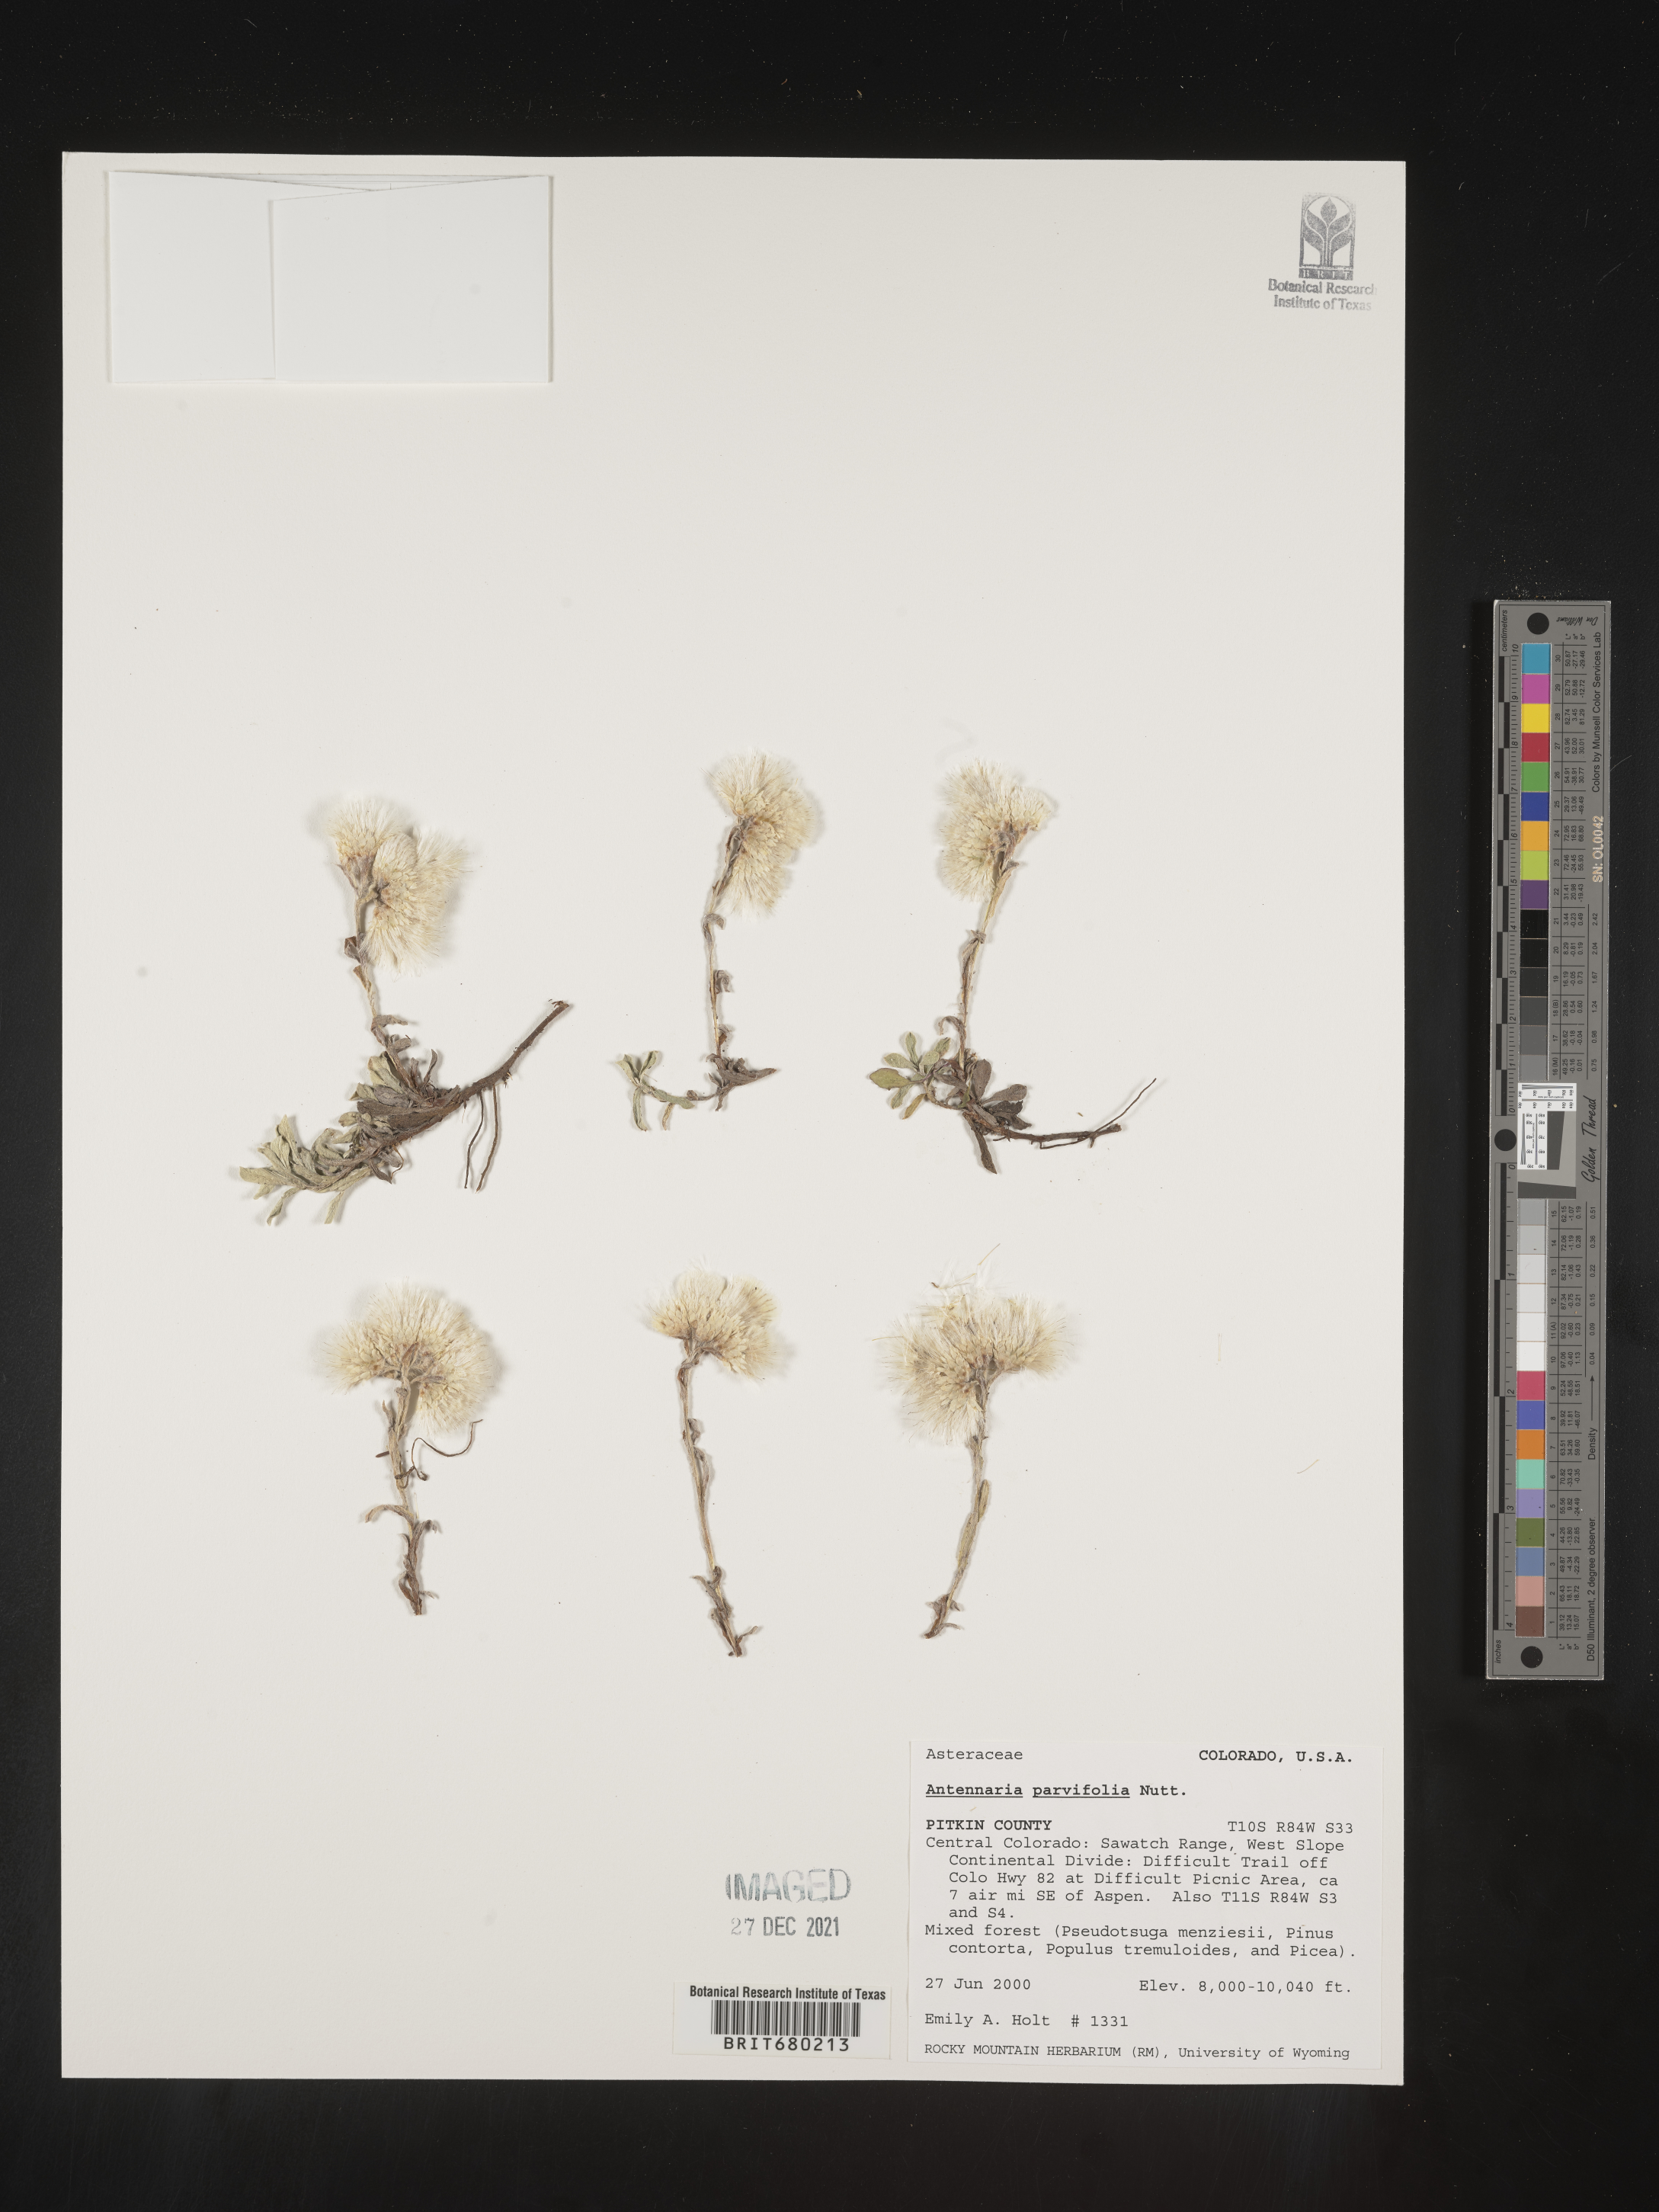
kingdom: Plantae
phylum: Tracheophyta
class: Magnoliopsida
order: Asterales
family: Asteraceae
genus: Antennaria
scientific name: Antennaria plantaginifolia
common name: Plantain-leaved pussytoes
